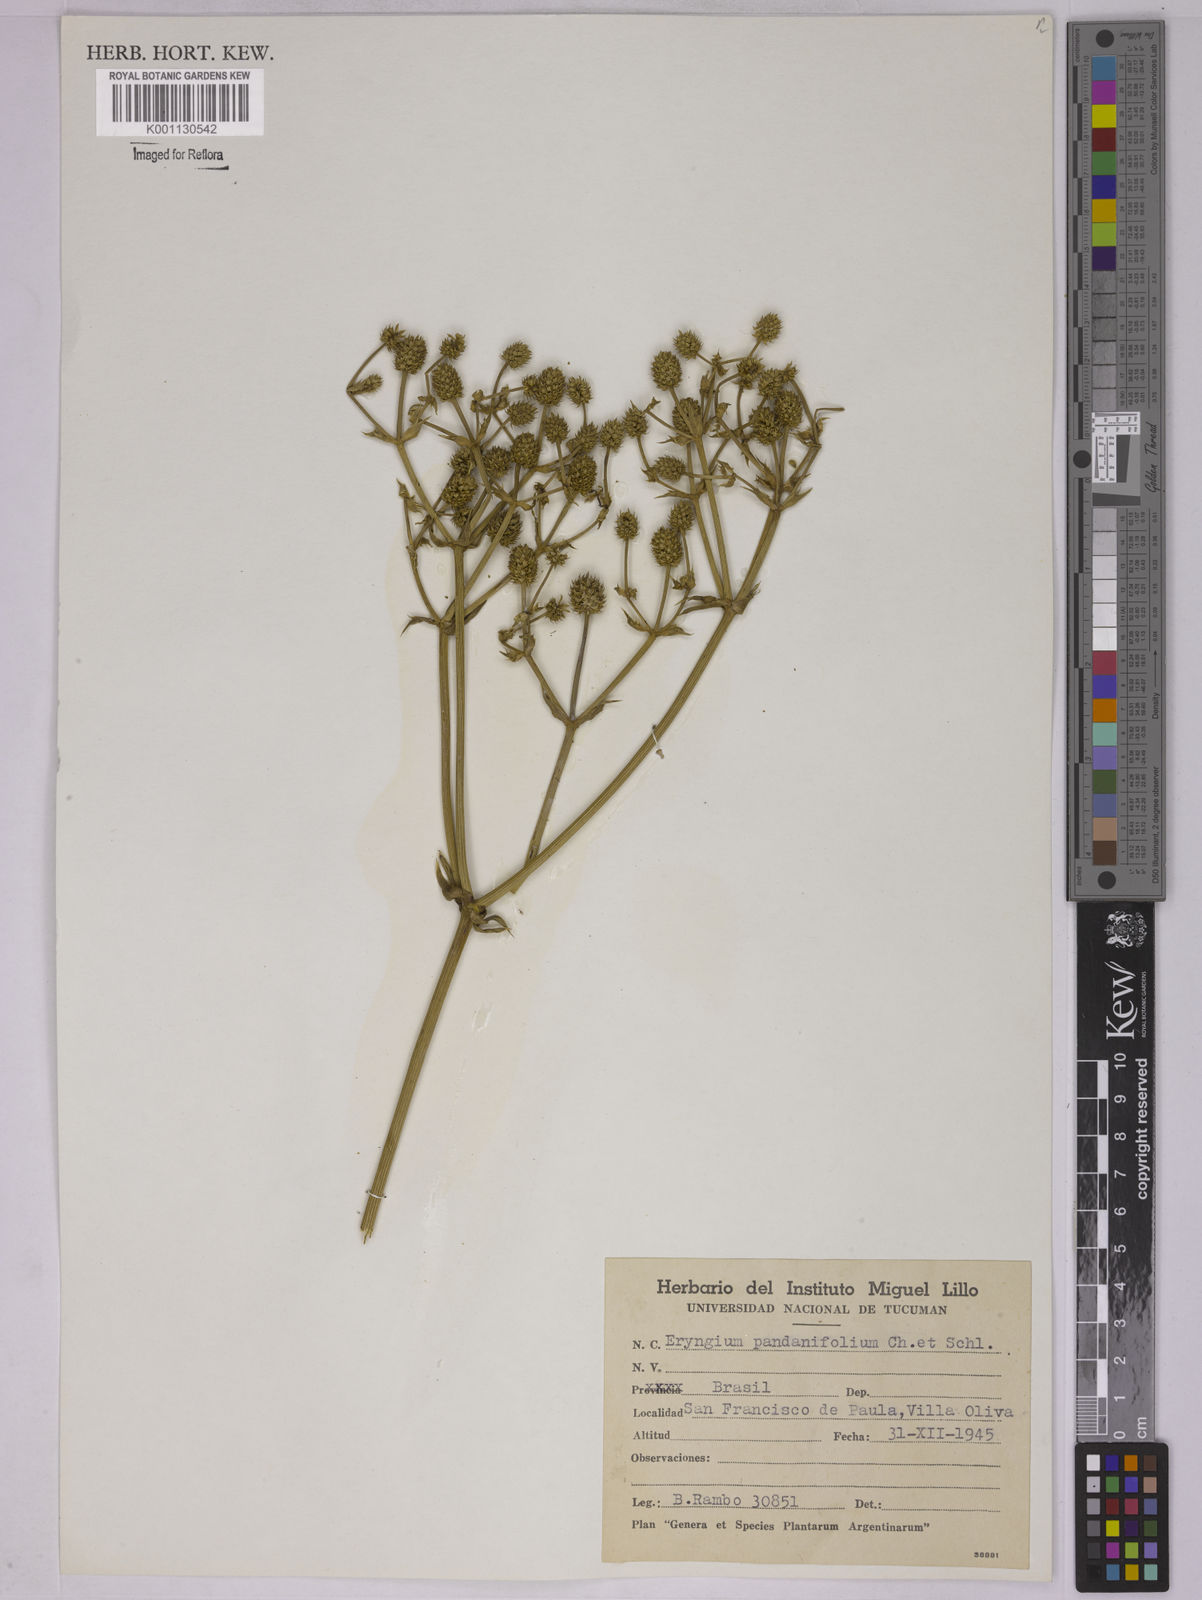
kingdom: Plantae
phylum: Tracheophyta
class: Magnoliopsida
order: Apiales
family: Apiaceae
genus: Eryngium
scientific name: Eryngium pandanifolium
